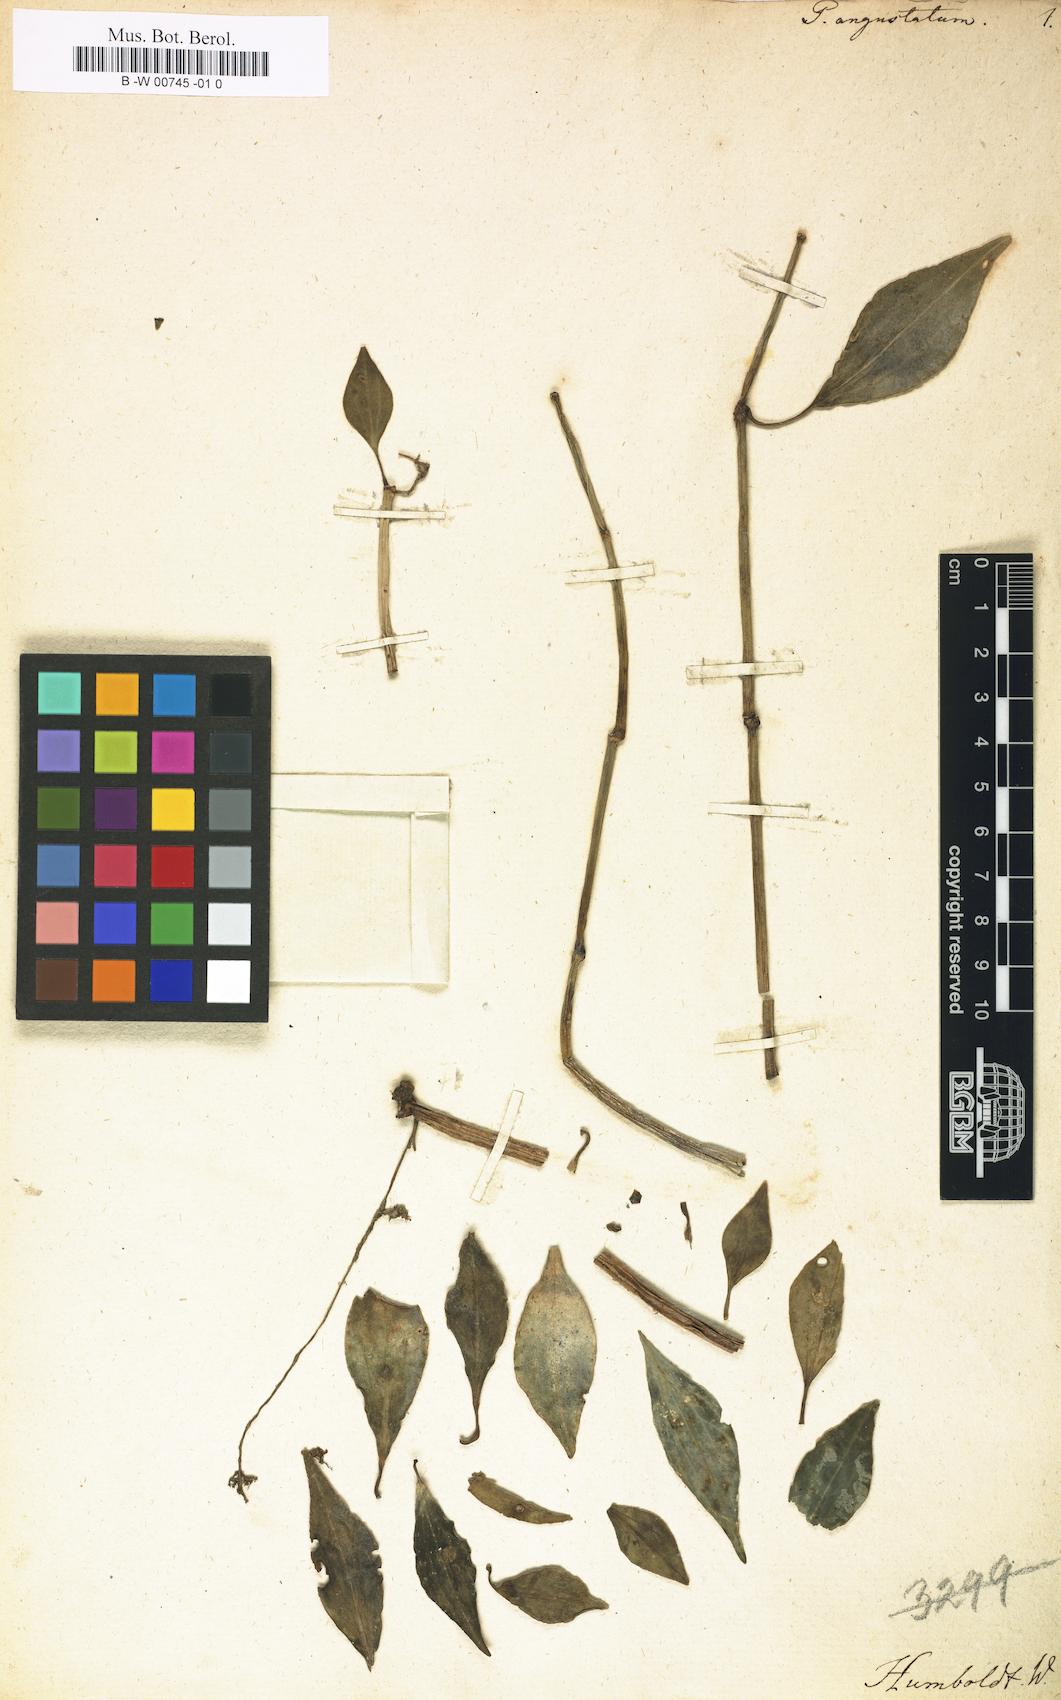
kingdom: Plantae
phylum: Tracheophyta
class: Magnoliopsida
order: Piperales
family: Piperaceae
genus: Peperomia
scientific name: Peperomia angustata
